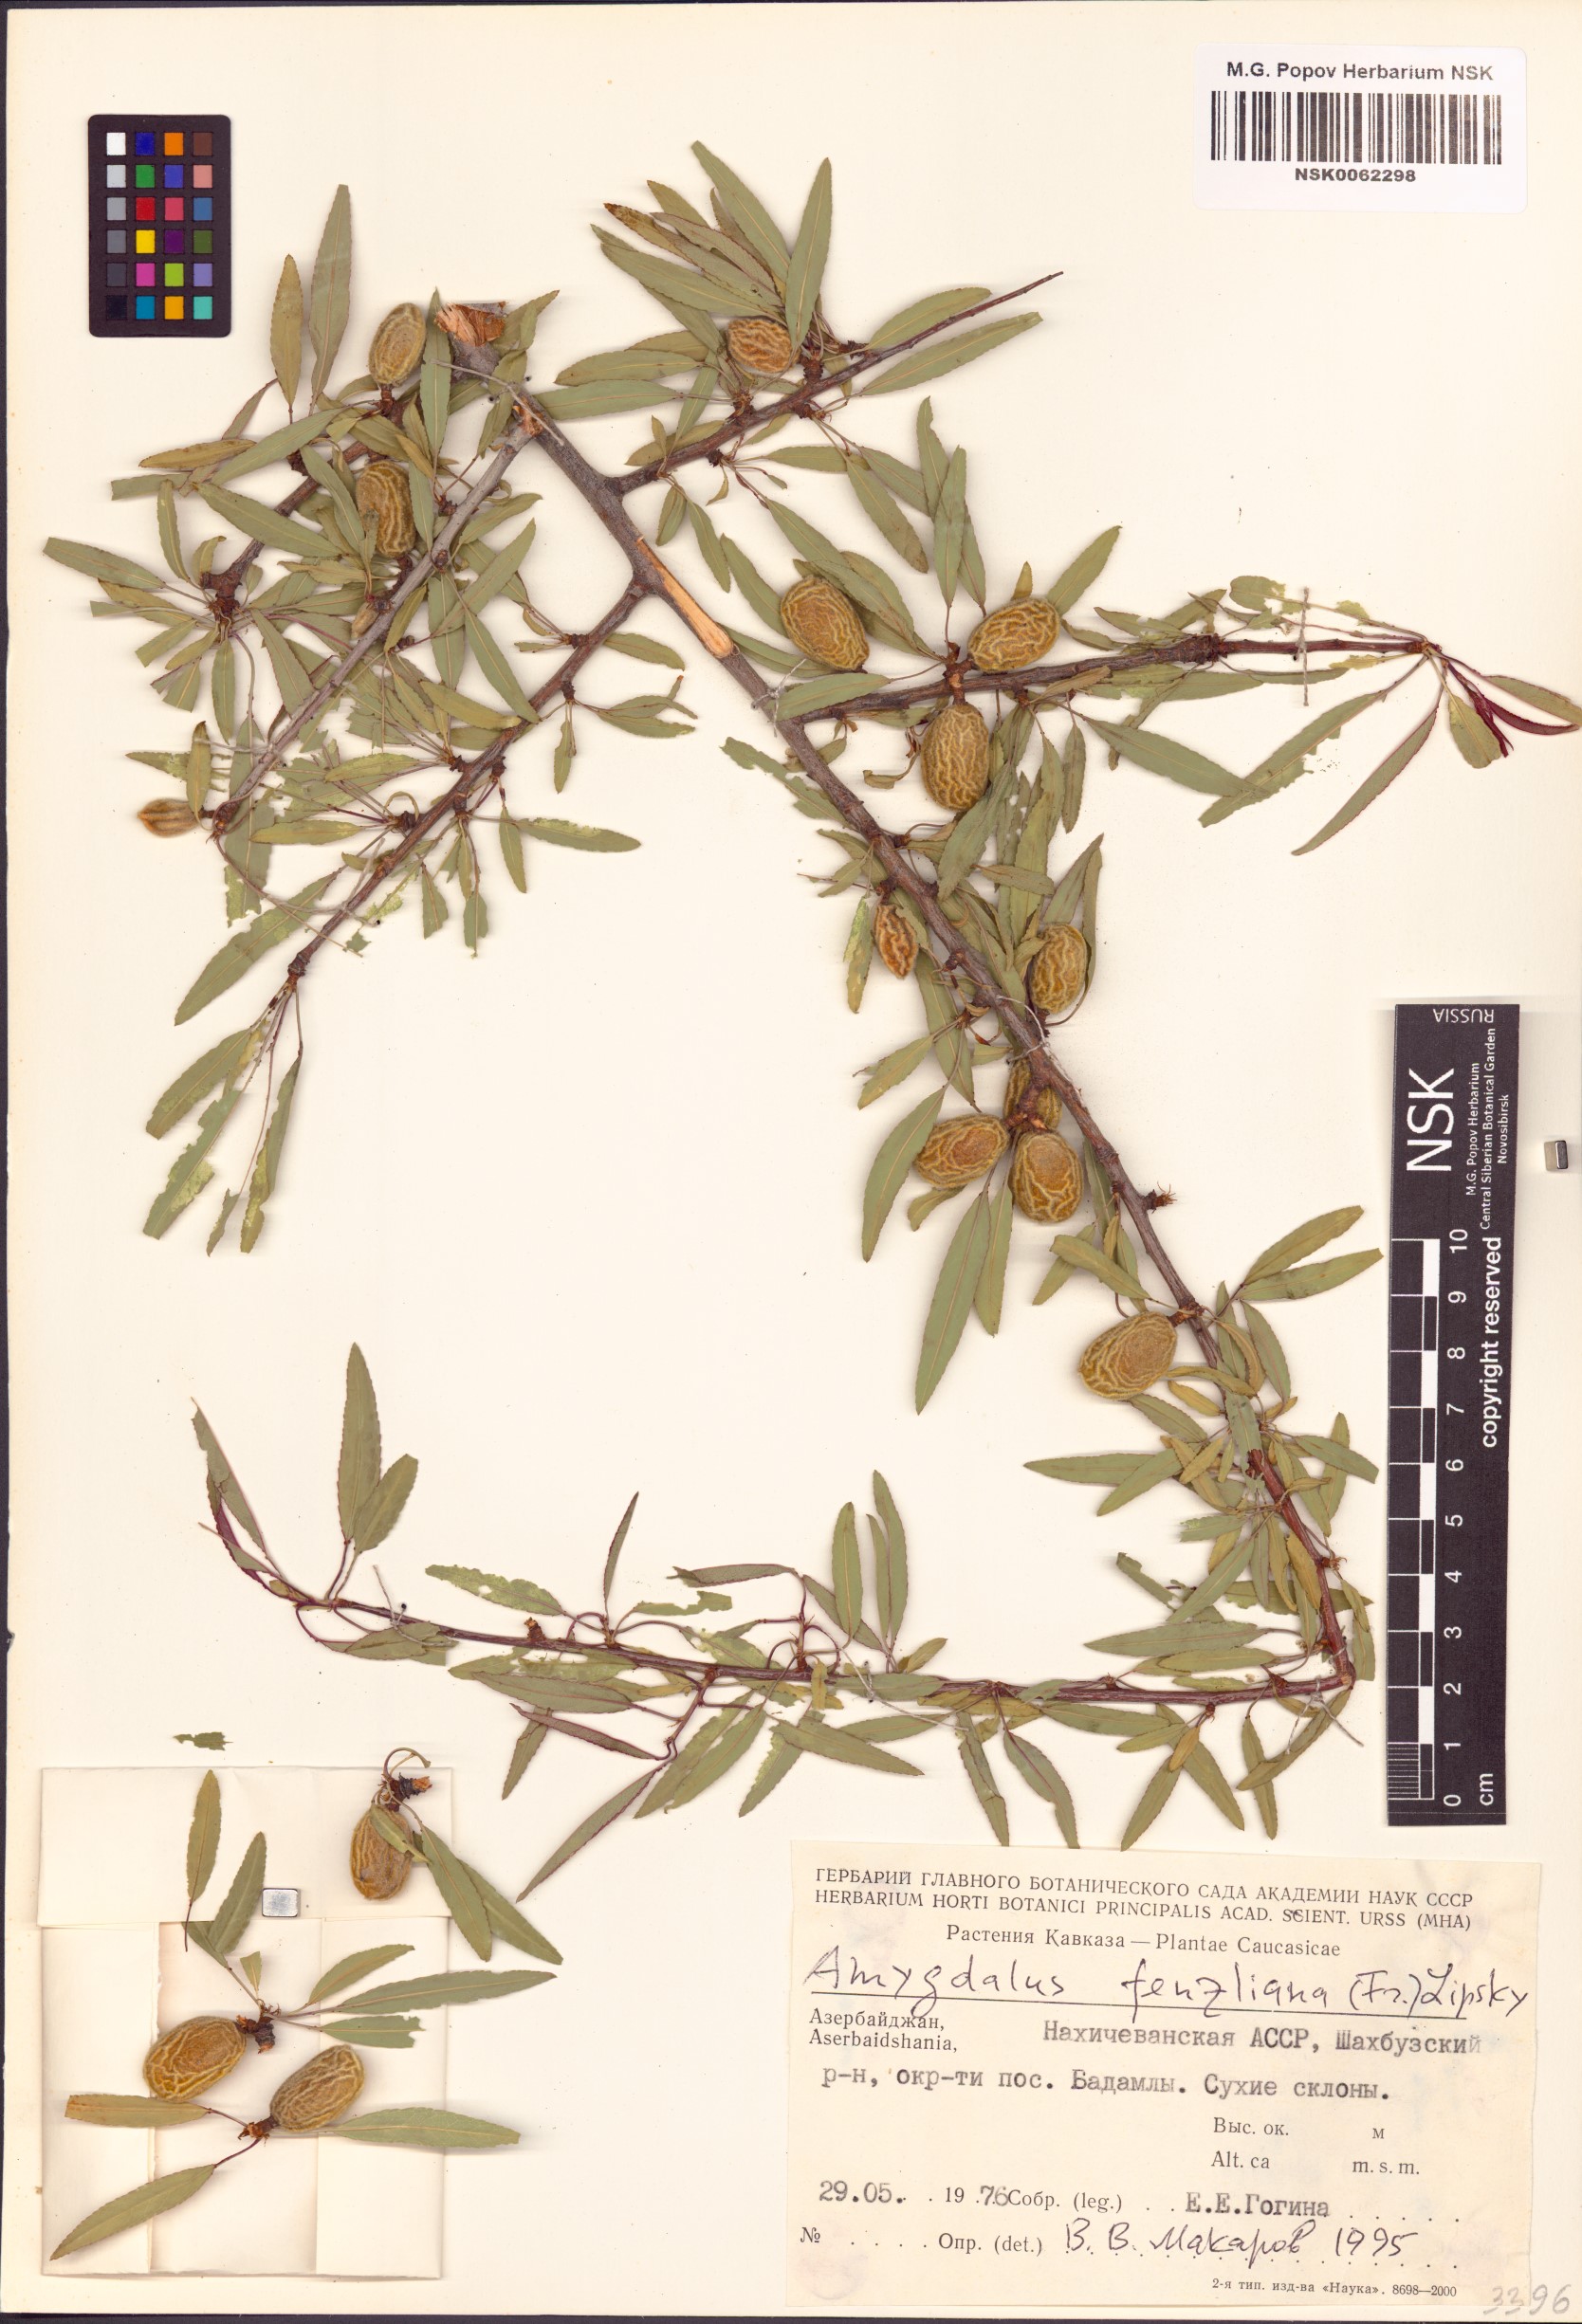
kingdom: Plantae
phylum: Tracheophyta
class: Magnoliopsida
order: Rosales
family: Rosaceae
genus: Prunus
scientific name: Prunus fenzliana
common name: Fenzls almond
